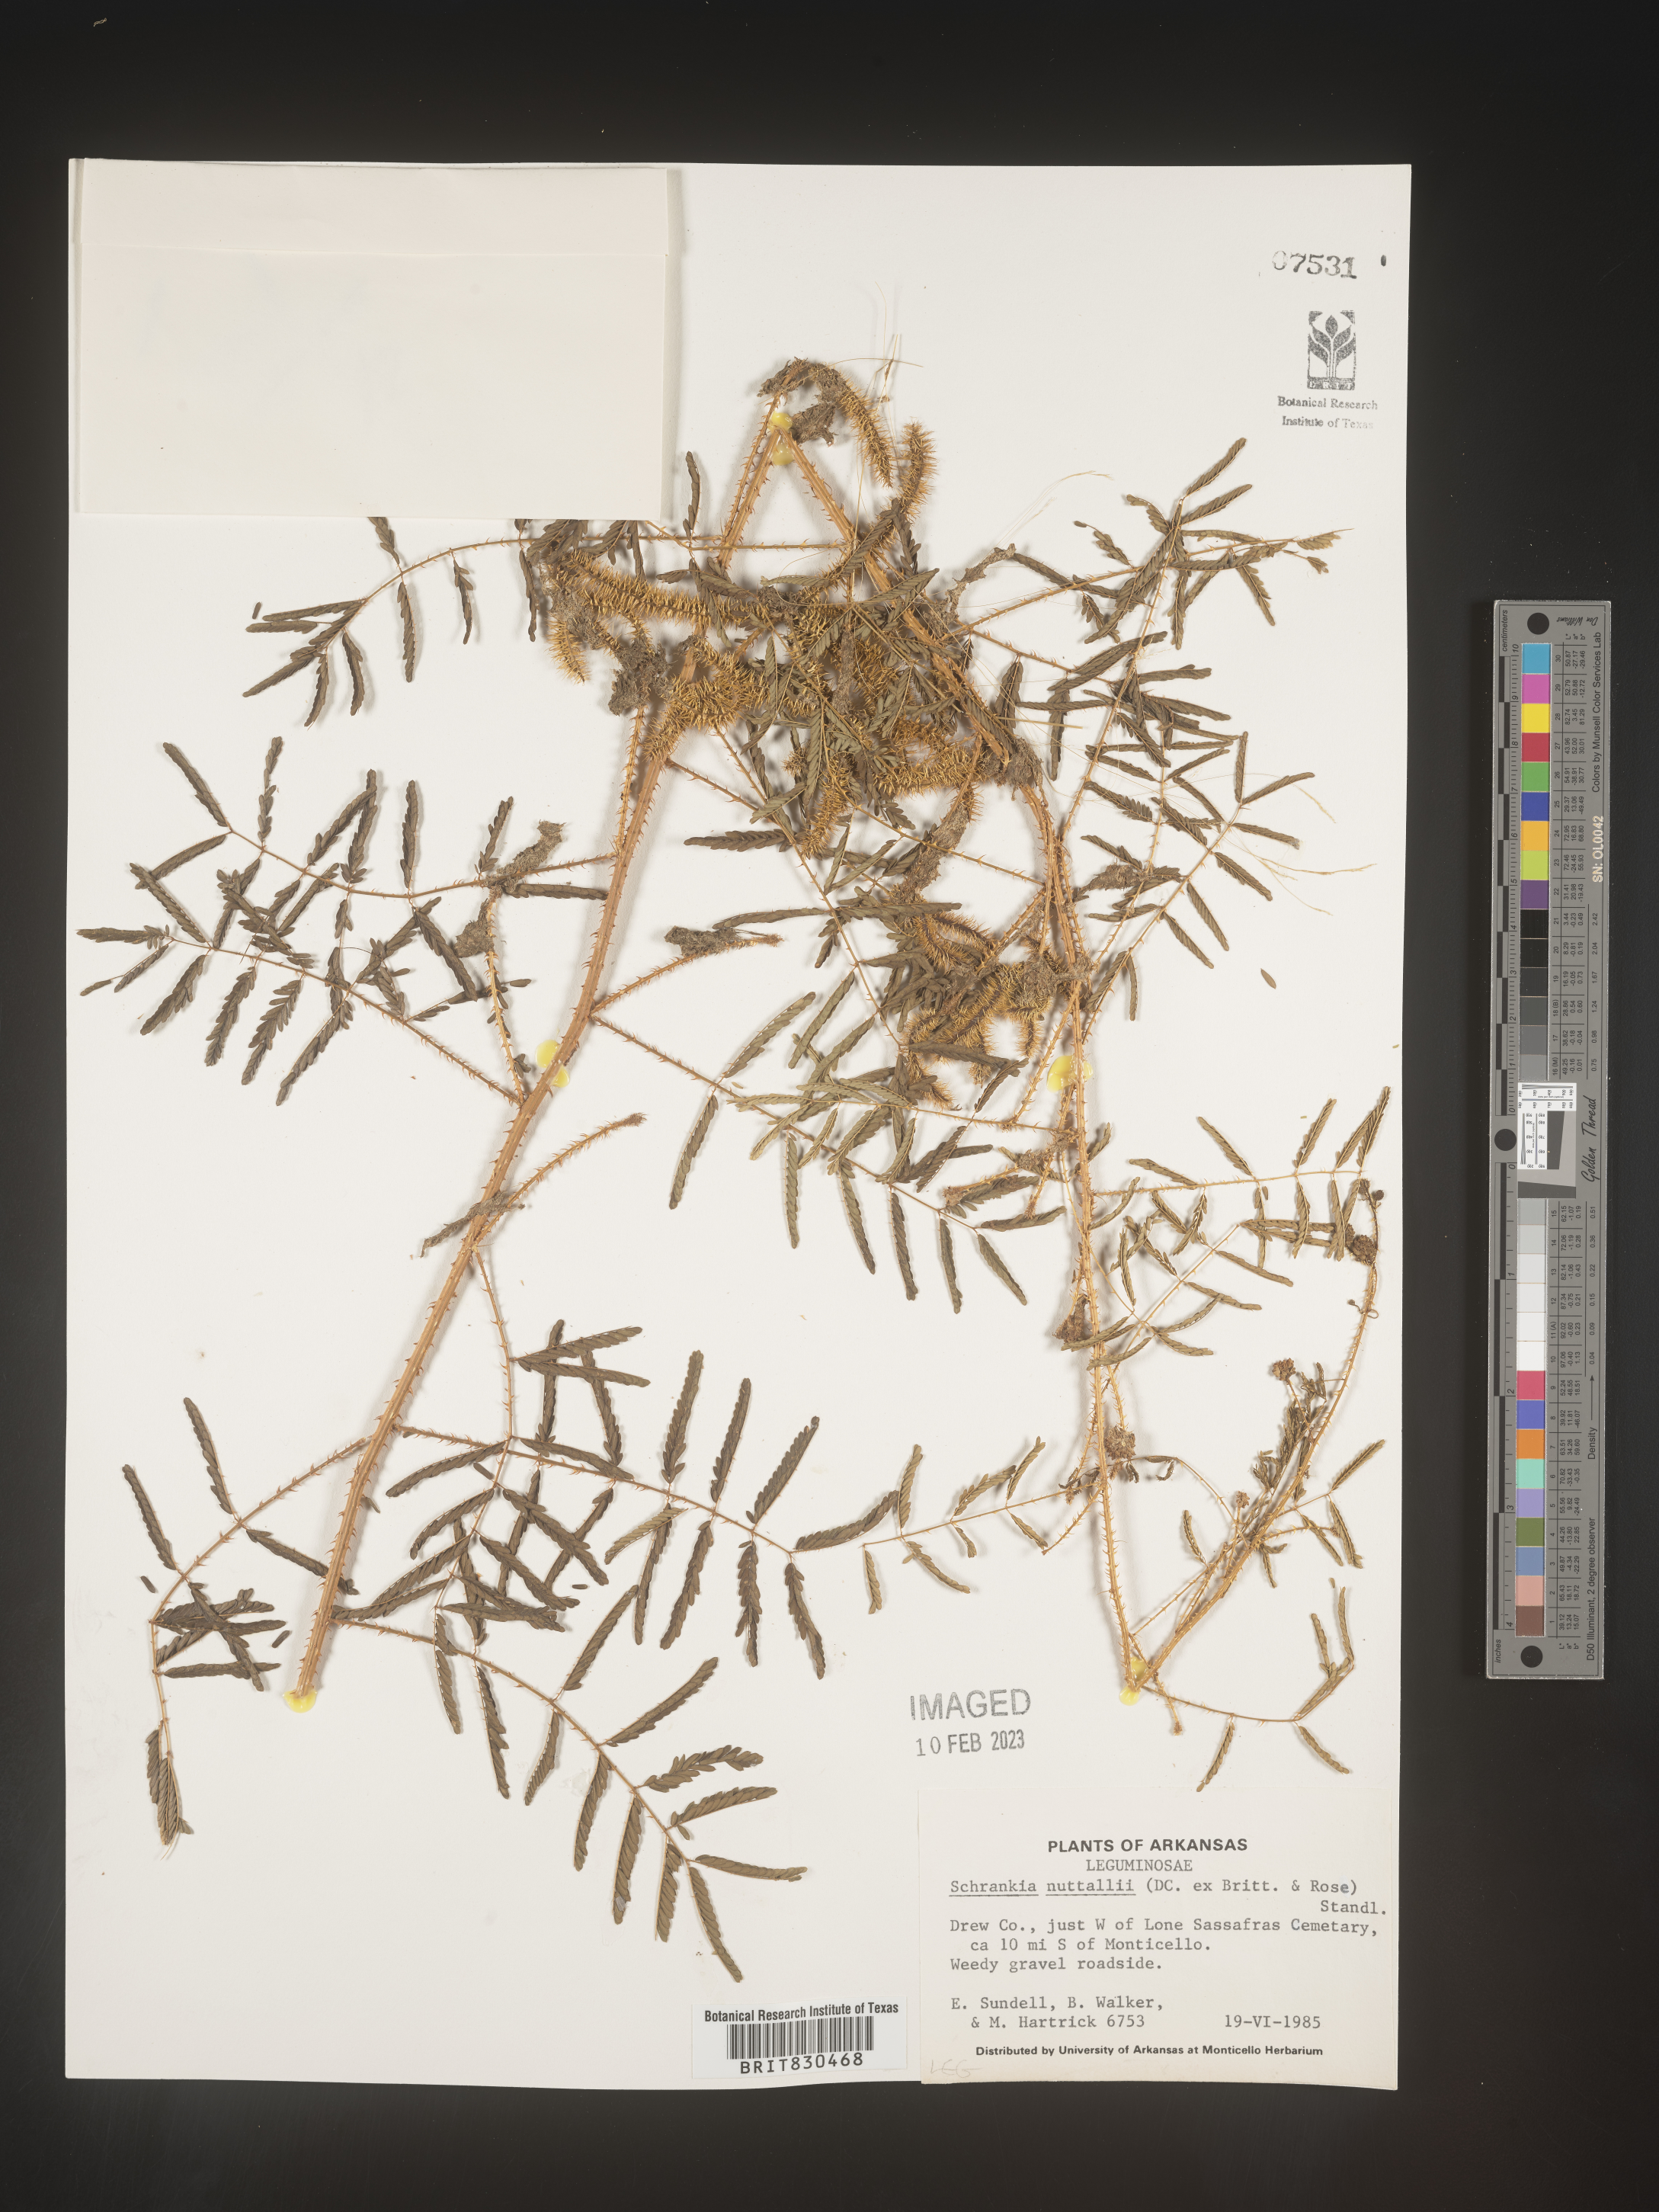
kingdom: Plantae
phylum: Tracheophyta
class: Magnoliopsida
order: Fabales
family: Fabaceae
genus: Mimosa
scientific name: Mimosa quadrivalvis
